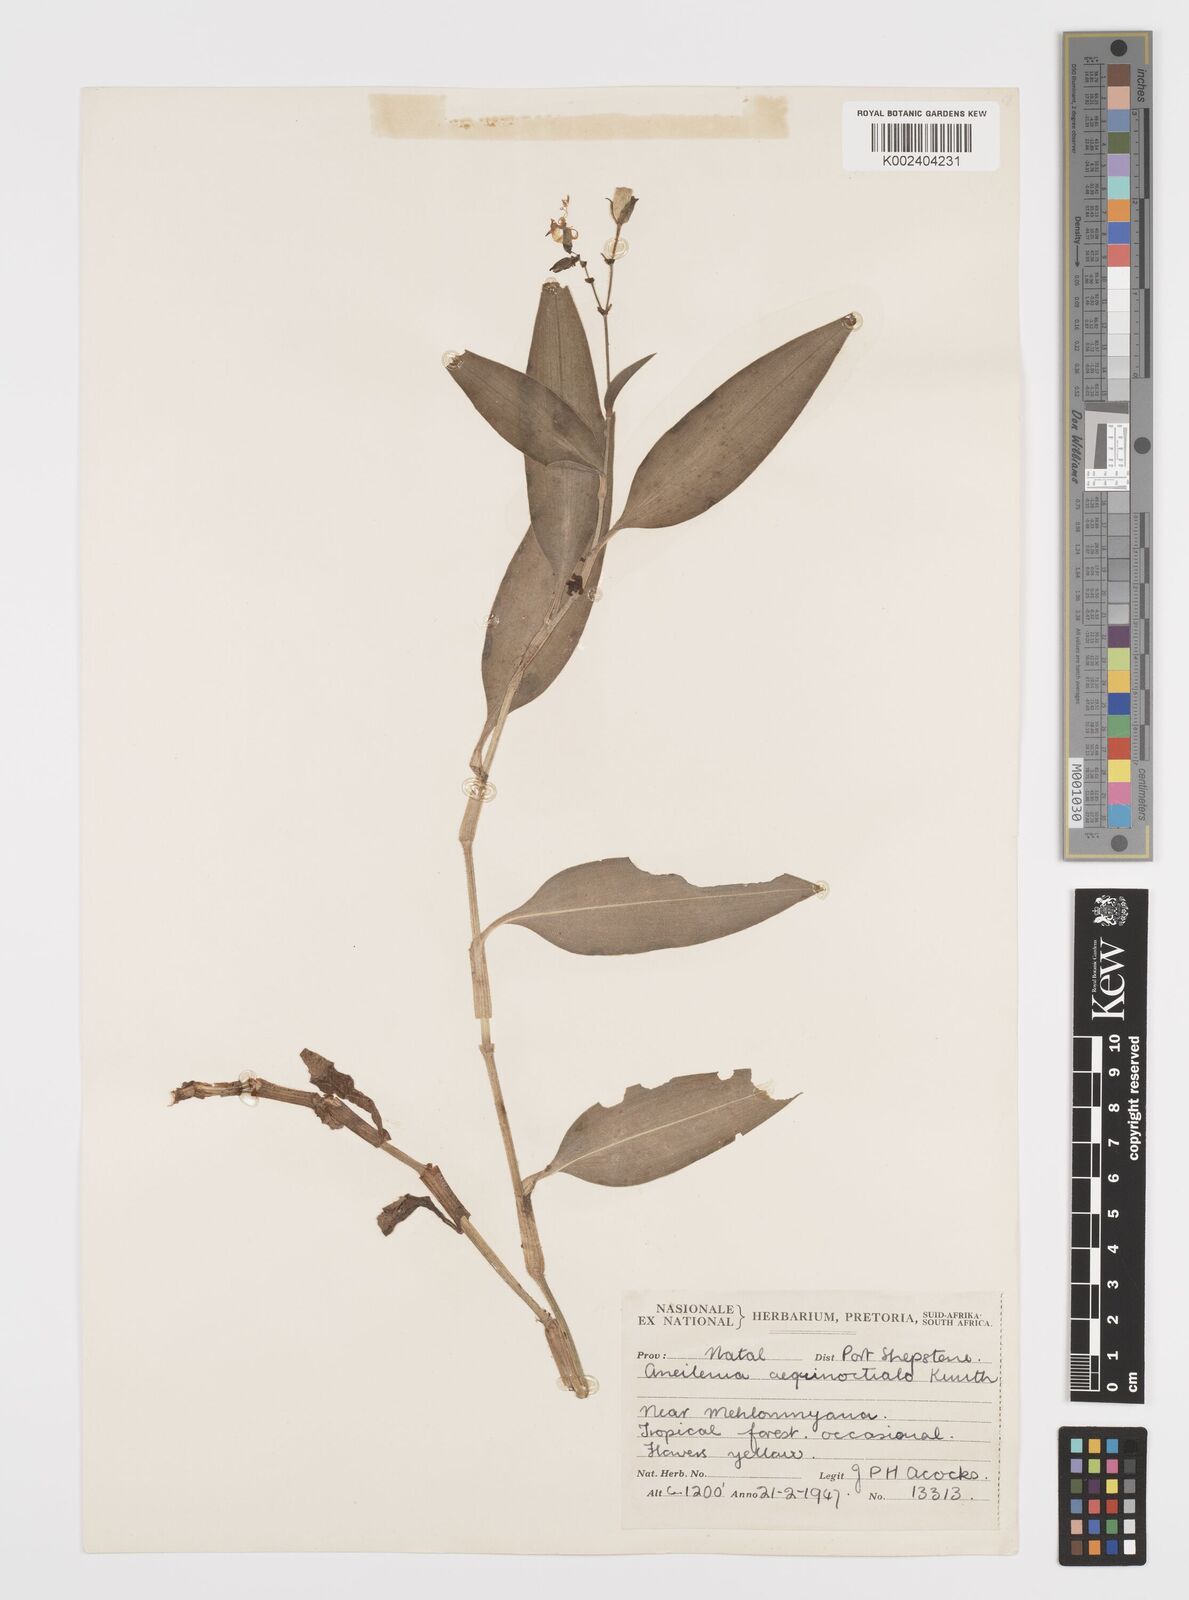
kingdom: Plantae
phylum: Tracheophyta
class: Liliopsida
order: Commelinales
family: Commelinaceae
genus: Aneilema
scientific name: Aneilema aequinoctiale
